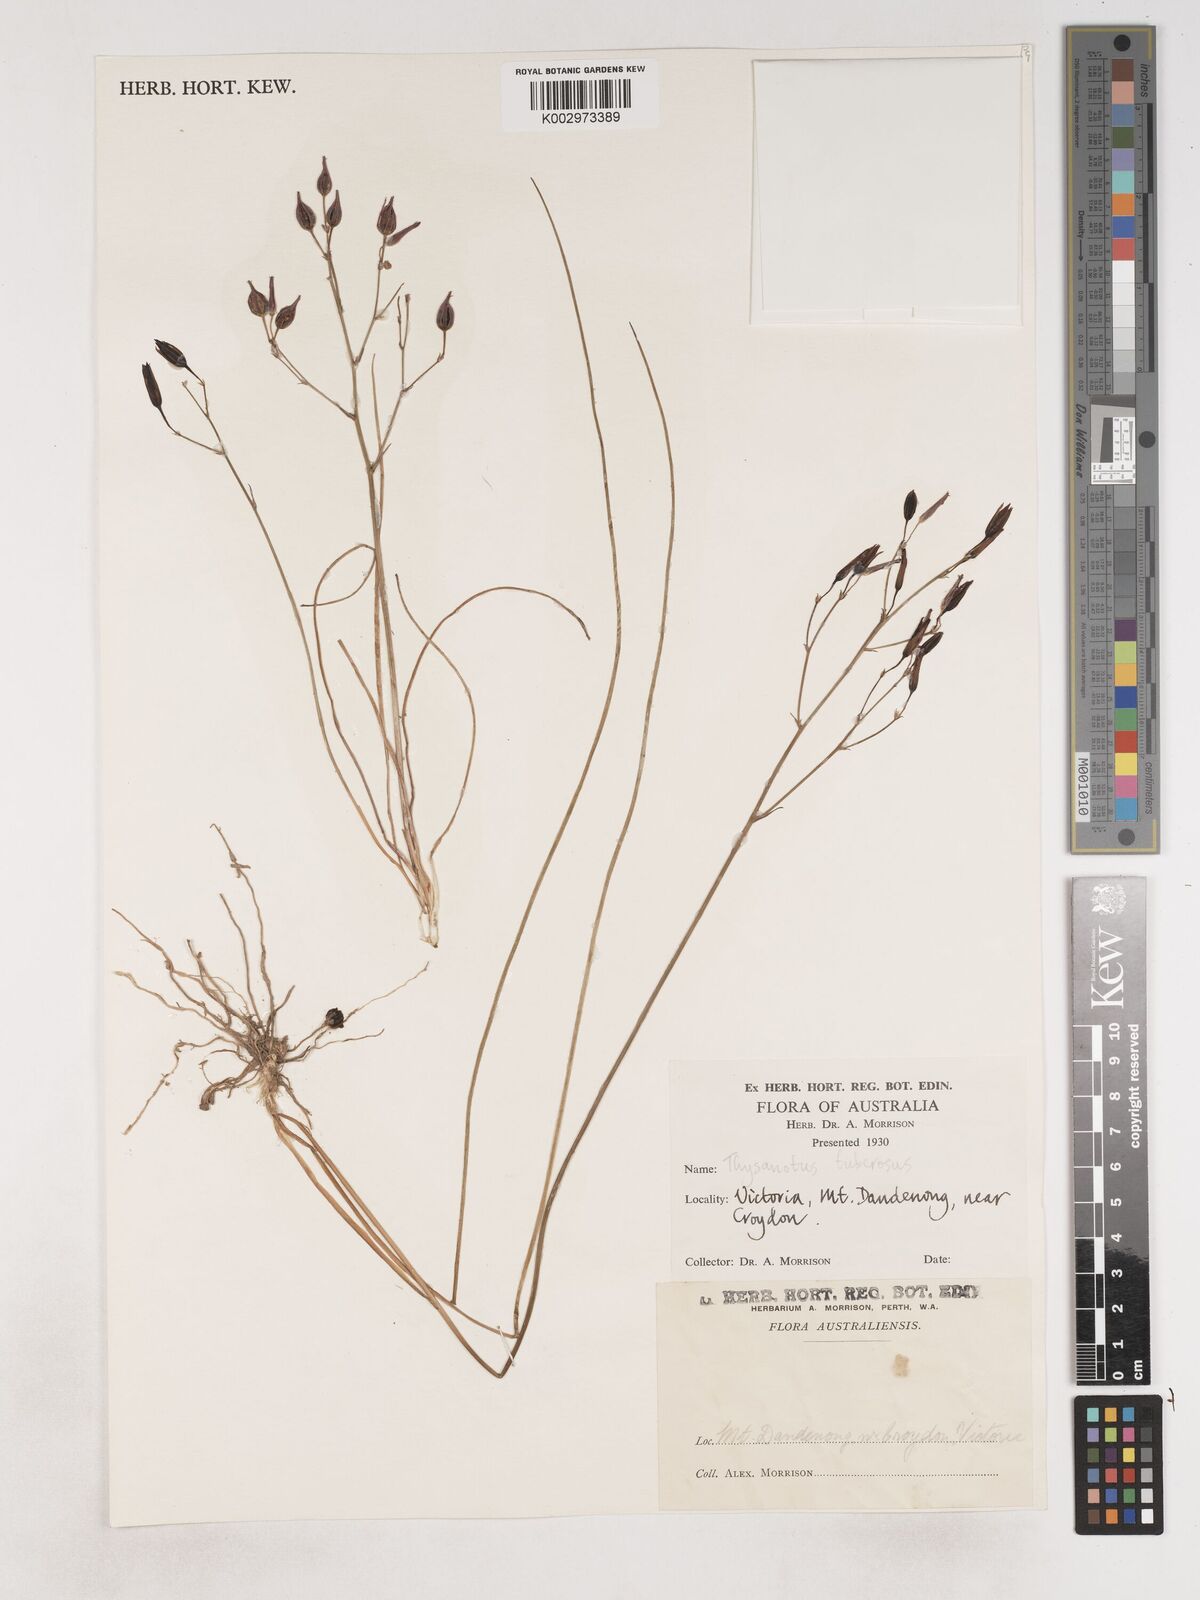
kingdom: Plantae
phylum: Tracheophyta
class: Liliopsida
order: Asparagales
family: Asparagaceae
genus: Thysanotus
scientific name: Thysanotus tuberosus
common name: Common fringed-lily
